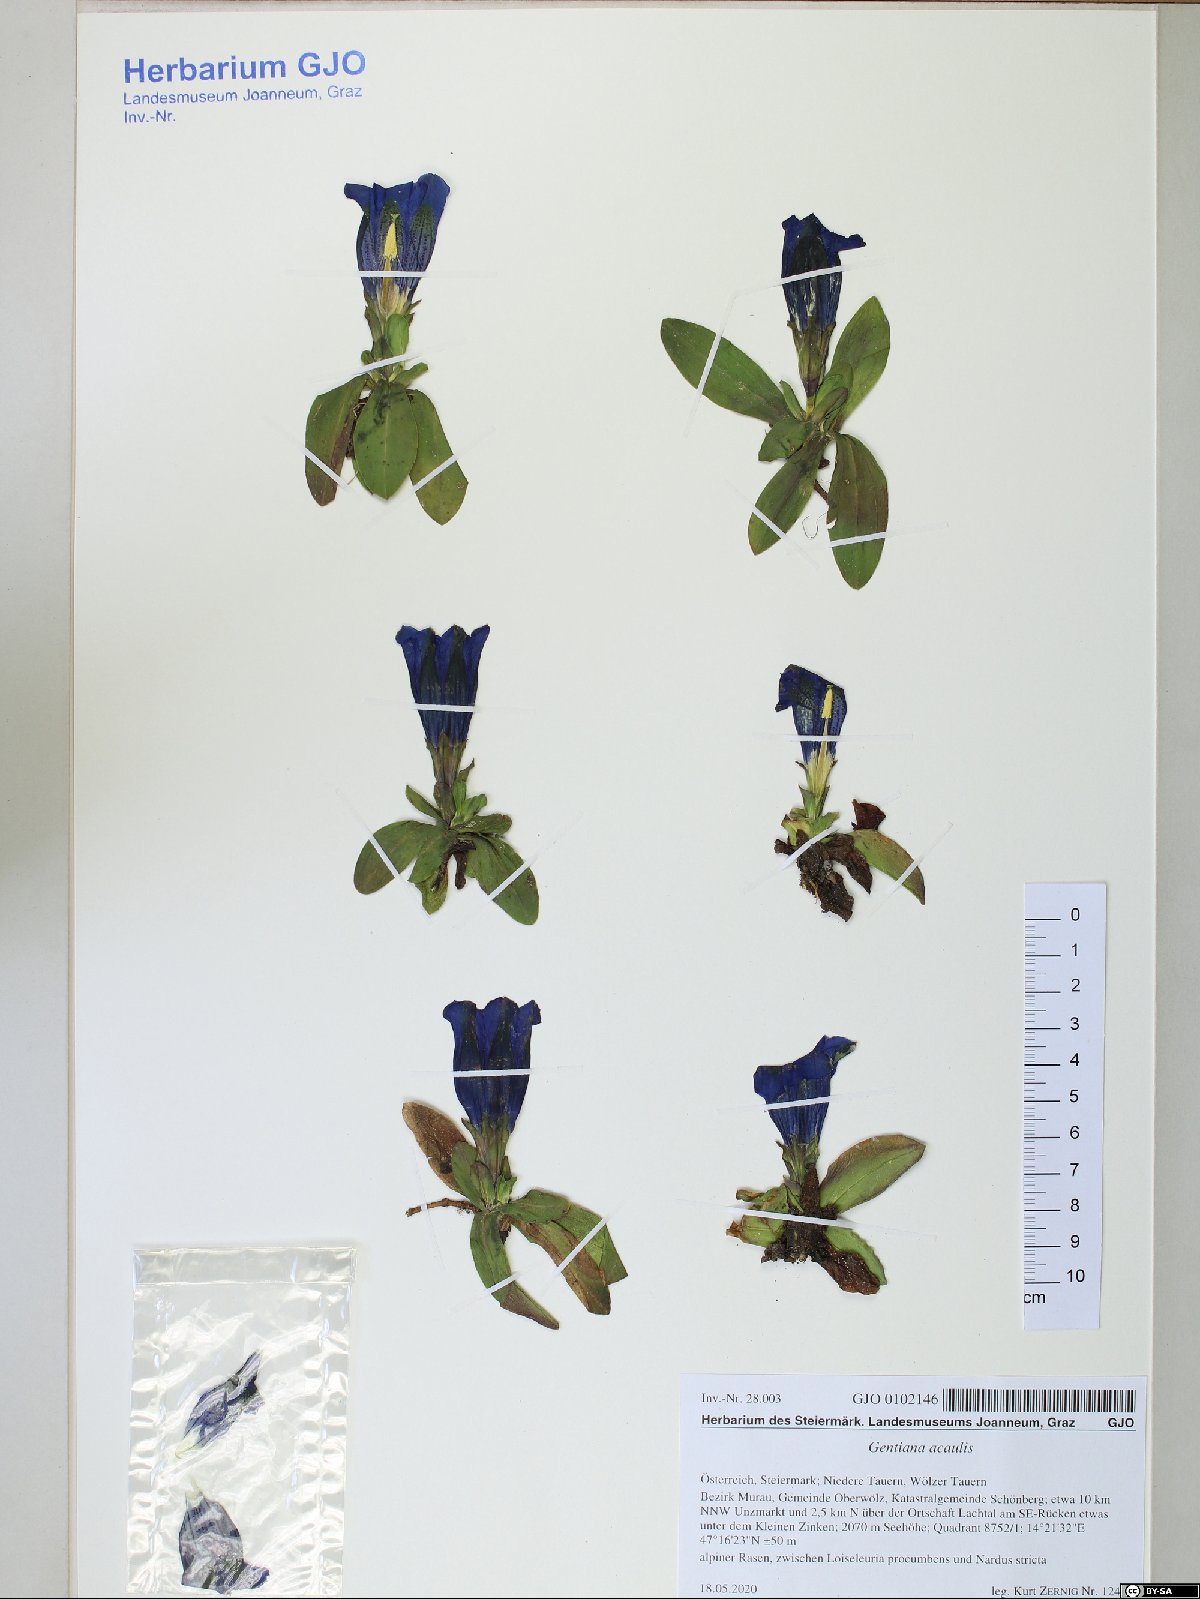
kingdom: Plantae
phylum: Tracheophyta
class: Magnoliopsida
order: Gentianales
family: Gentianaceae
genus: Gentiana
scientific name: Gentiana acaulis
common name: Trumpet gentian
